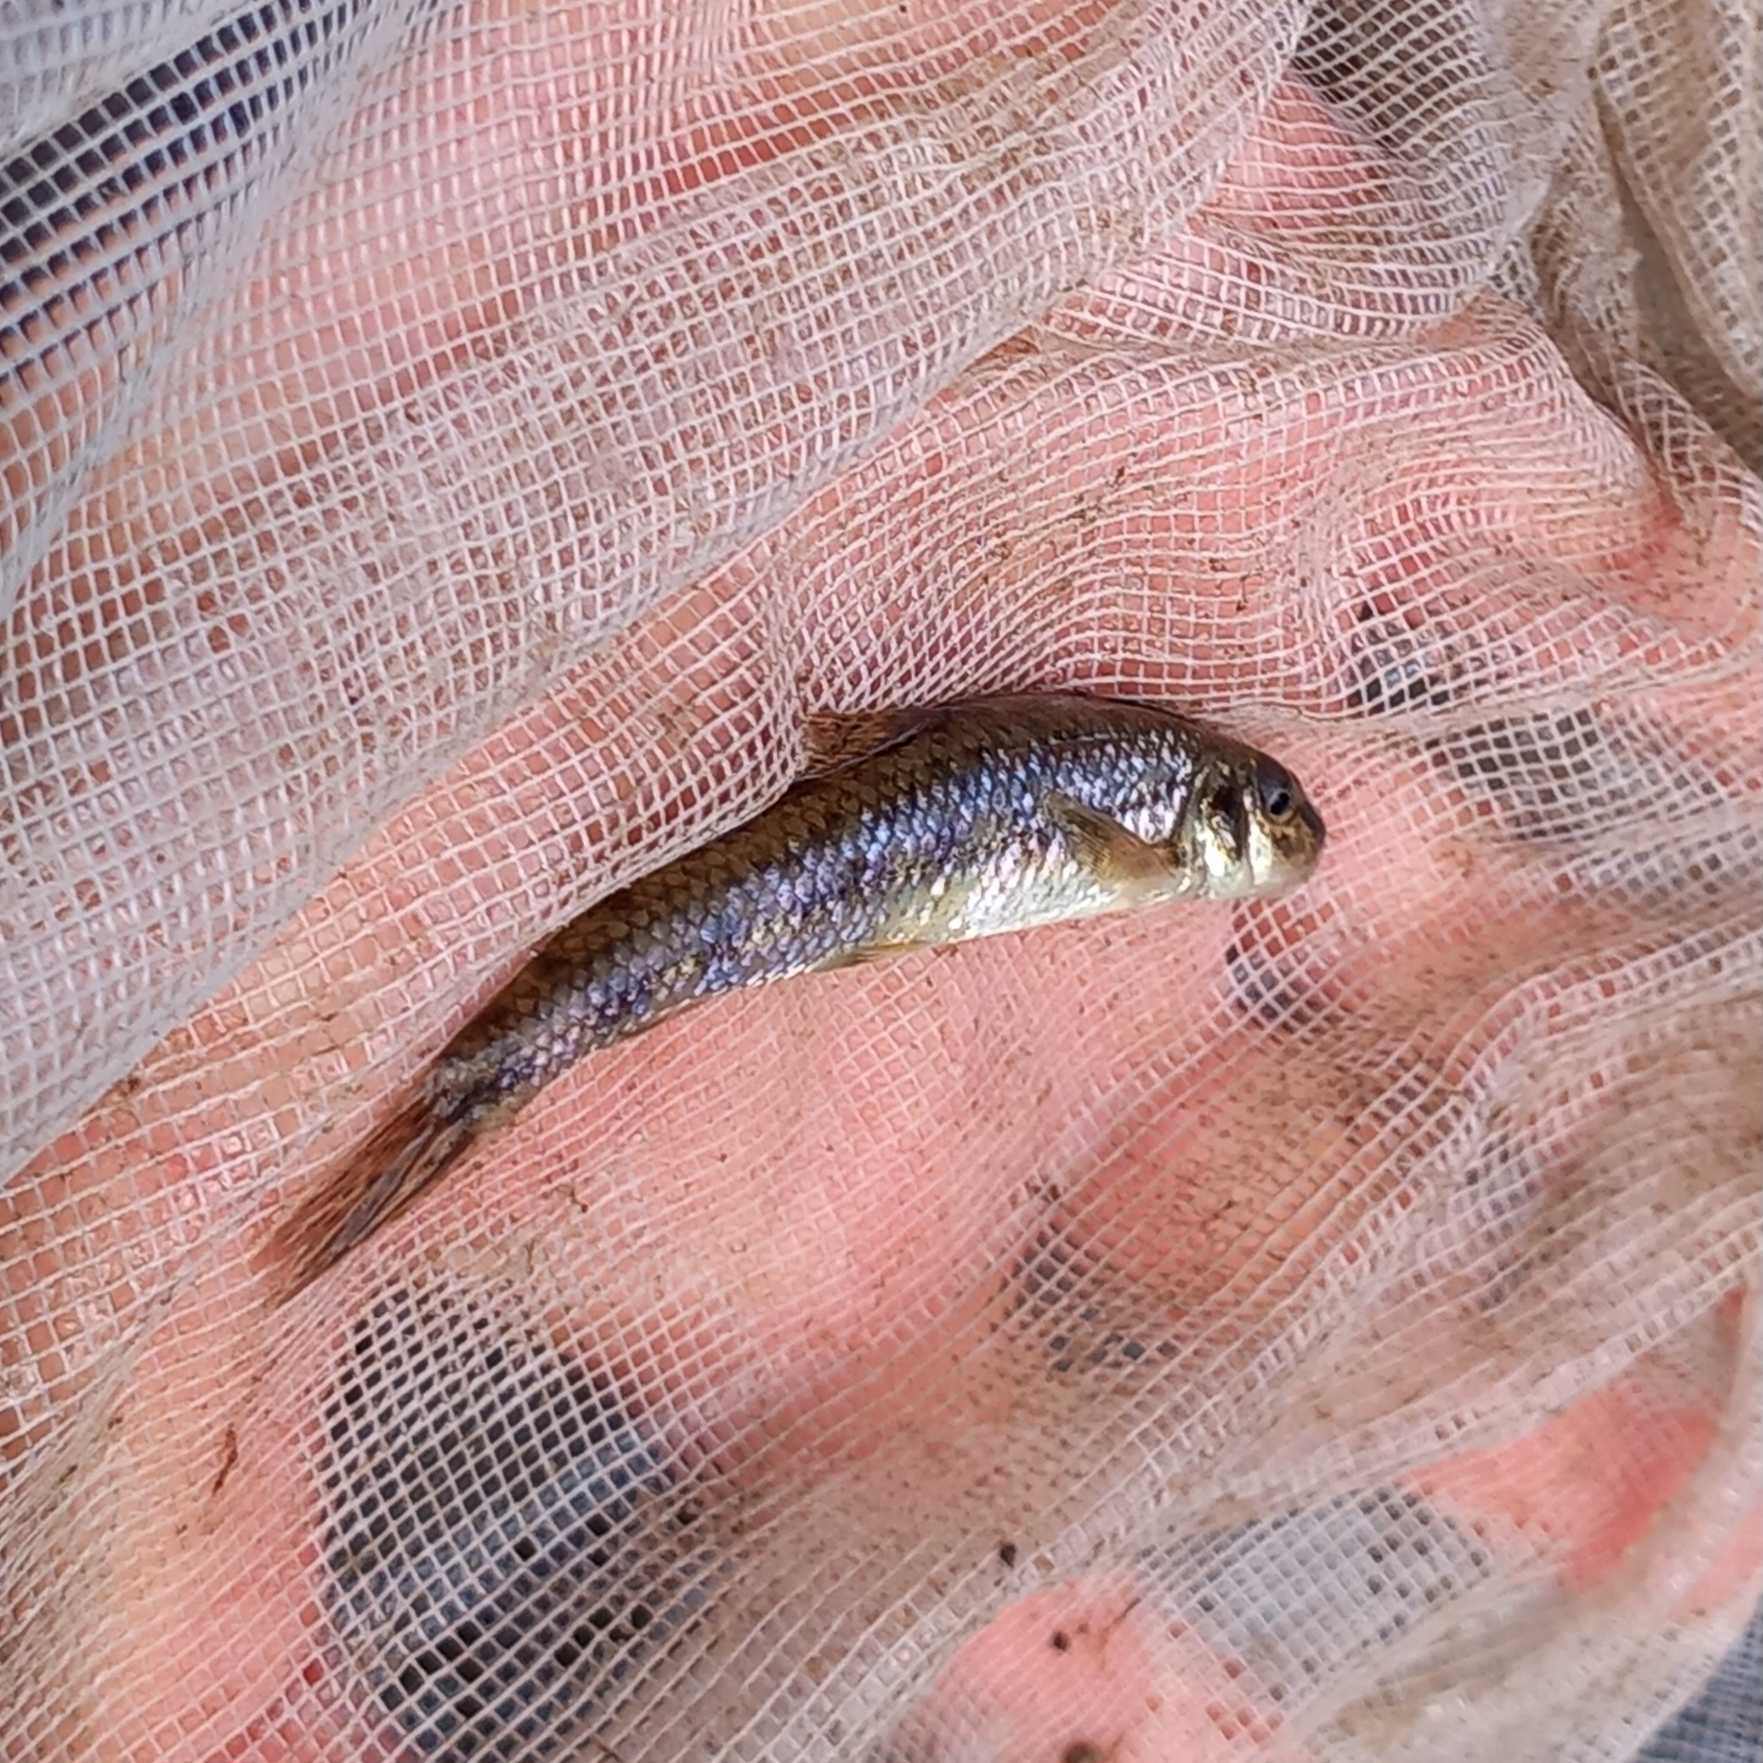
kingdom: Animalia
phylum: Chordata
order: Cypriniformes
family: Cyprinidae
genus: Gobio
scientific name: Gobio gobio
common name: Grundling
